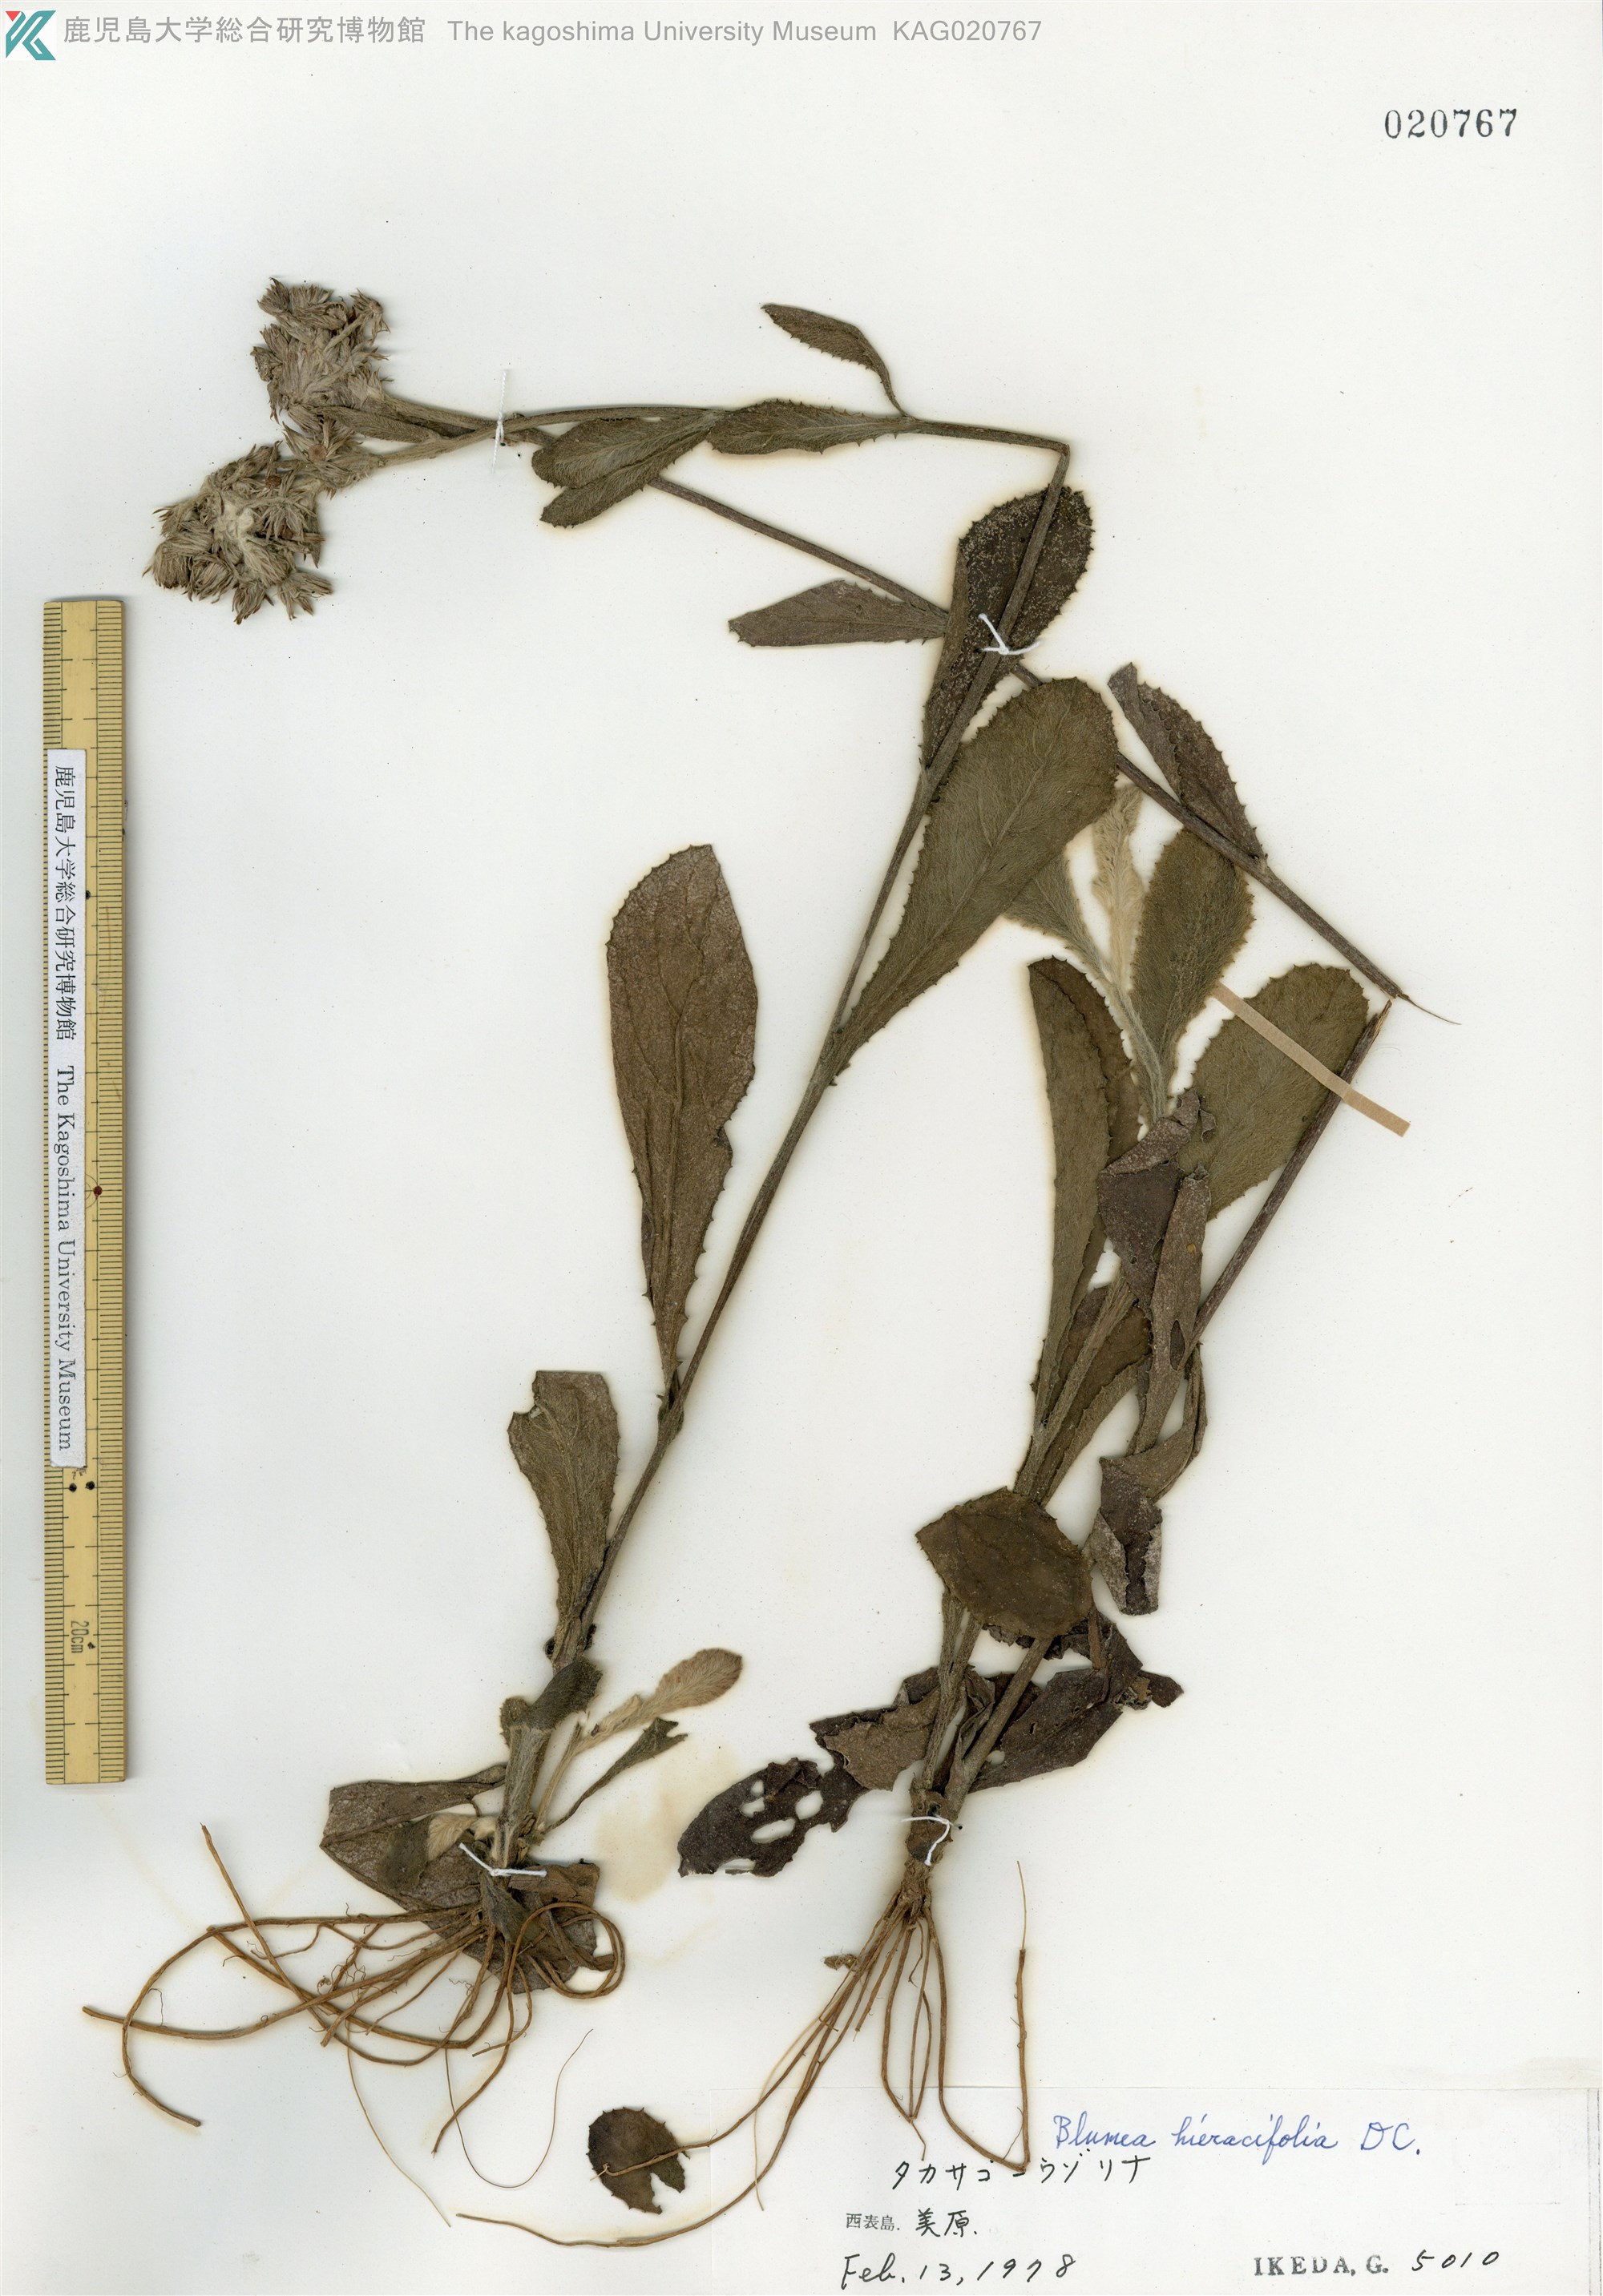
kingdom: Plantae
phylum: Tracheophyta
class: Magnoliopsida
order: Asterales
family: Asteraceae
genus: Blumea
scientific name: Blumea hieraciifolia
